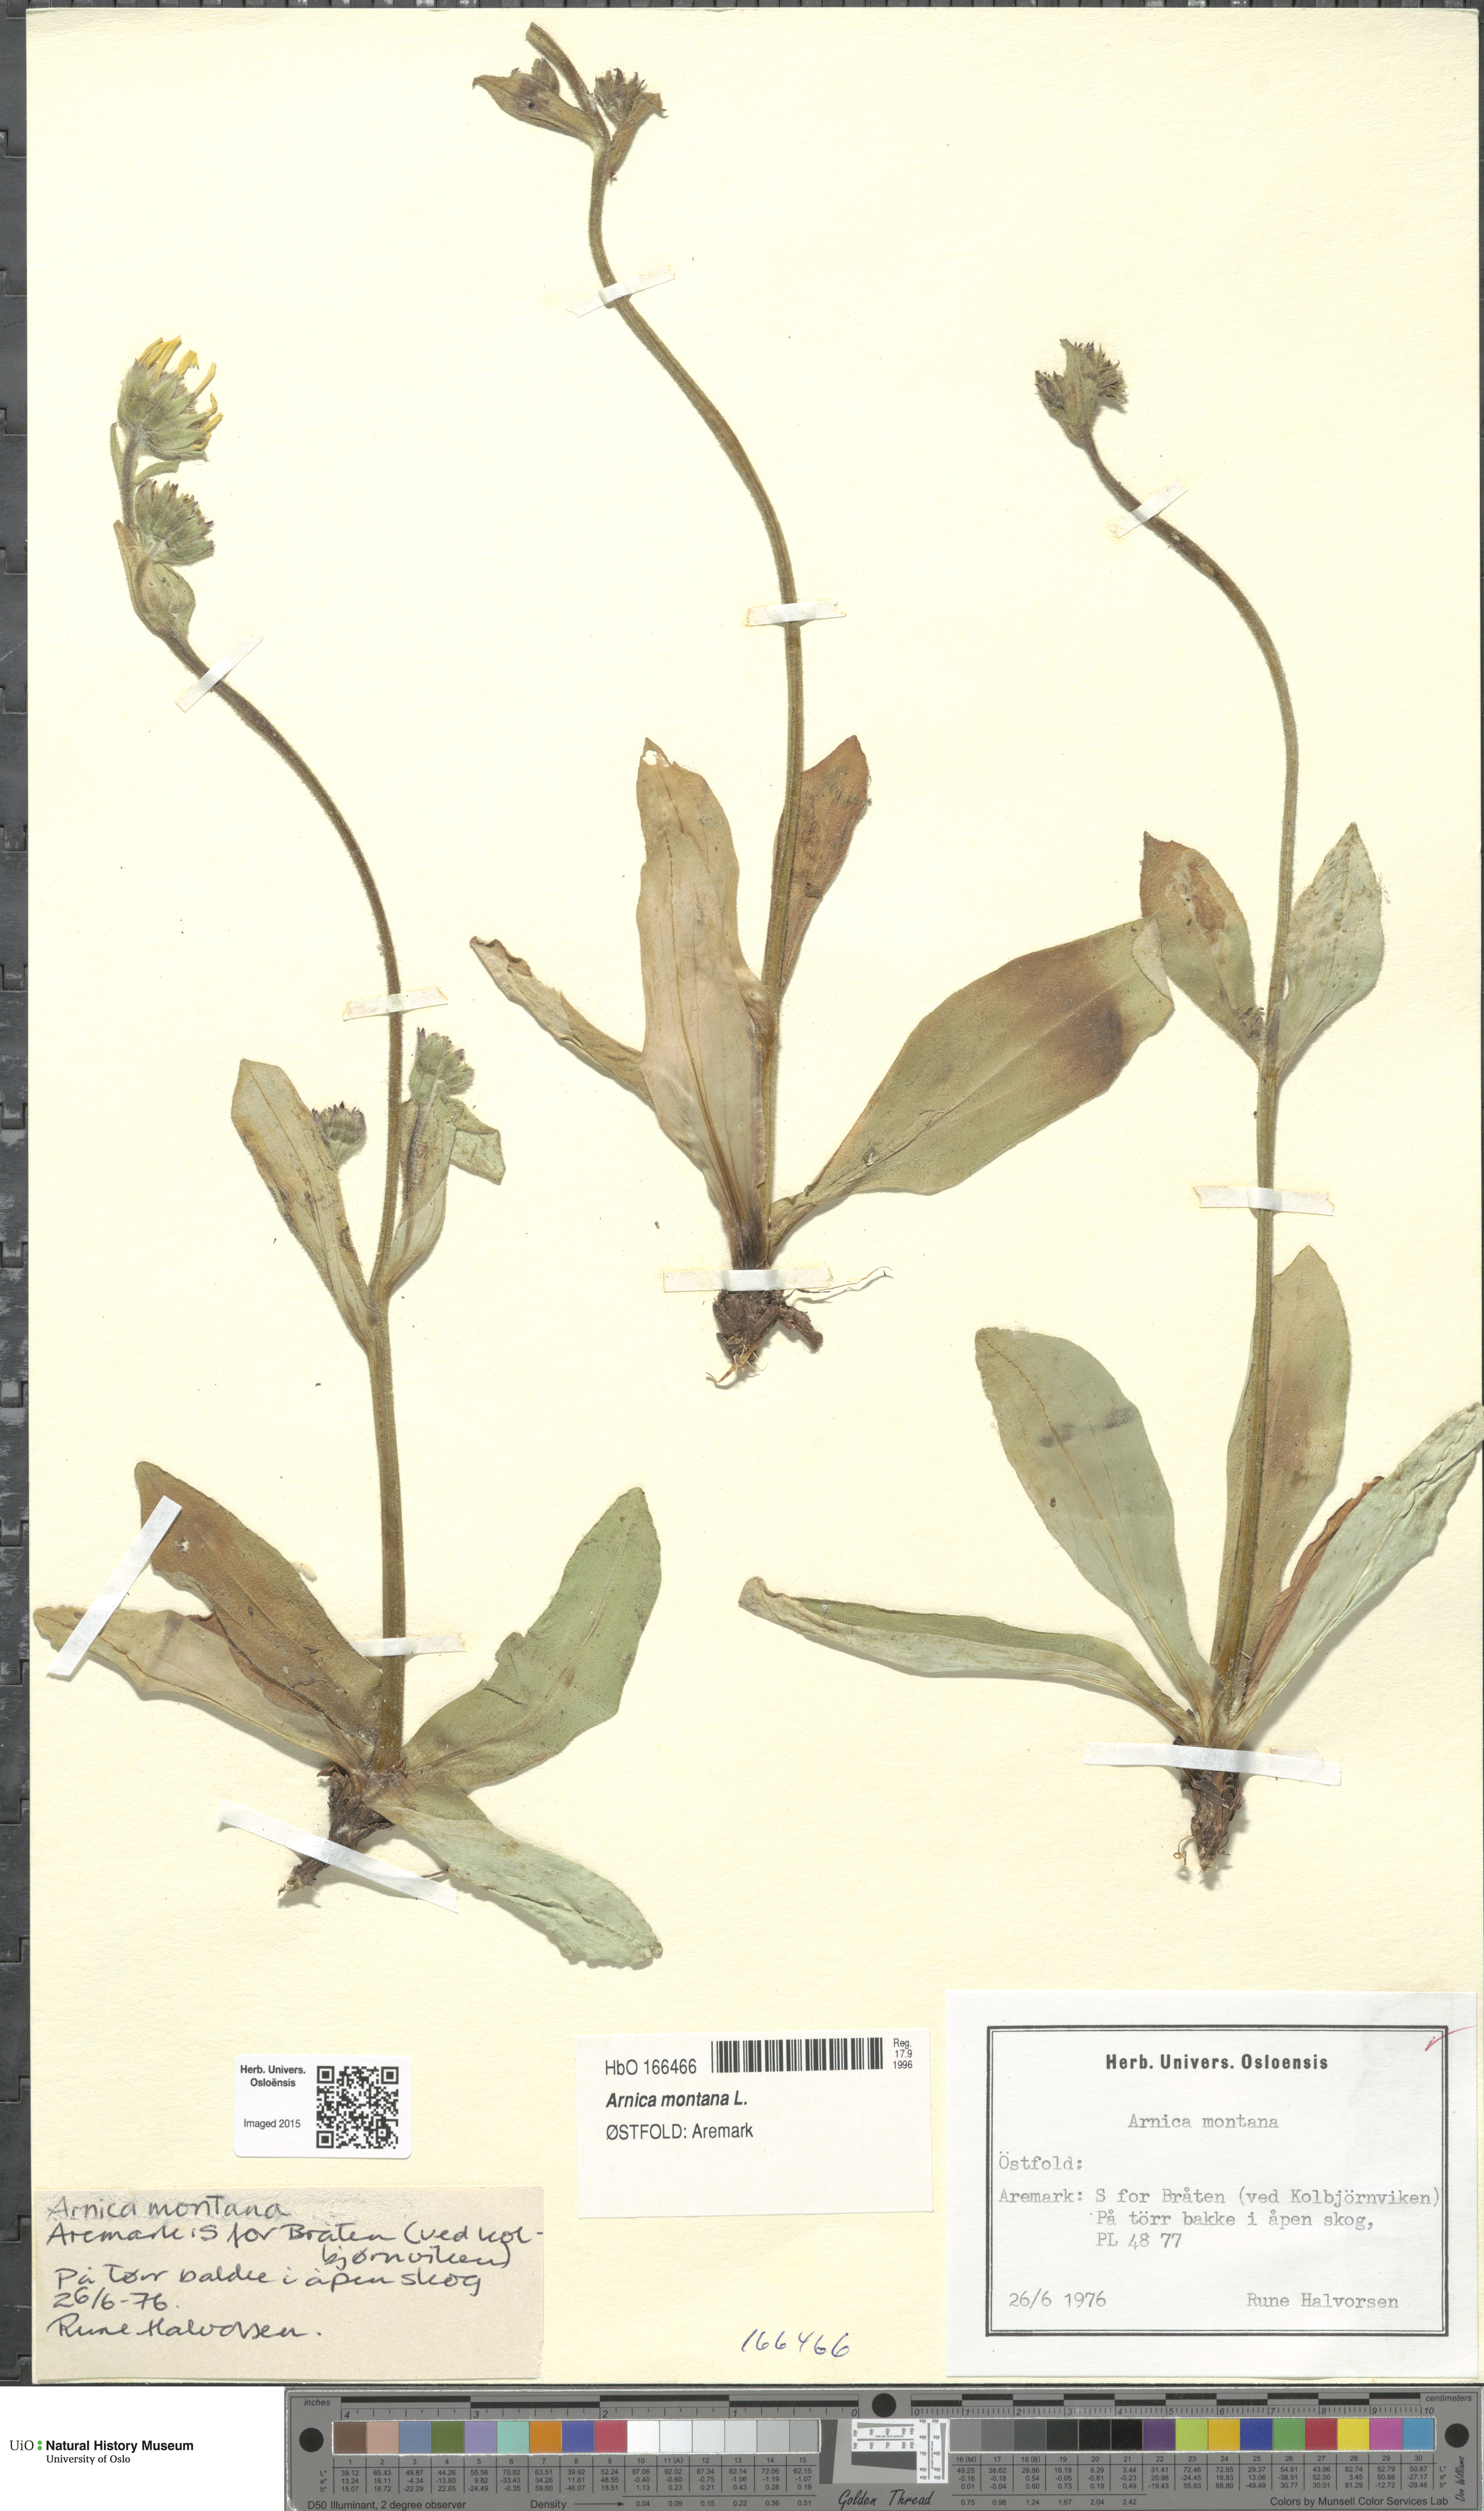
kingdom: Plantae
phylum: Tracheophyta
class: Magnoliopsida
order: Asterales
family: Asteraceae
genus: Arnica
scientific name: Arnica montana
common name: Leopard's bane
